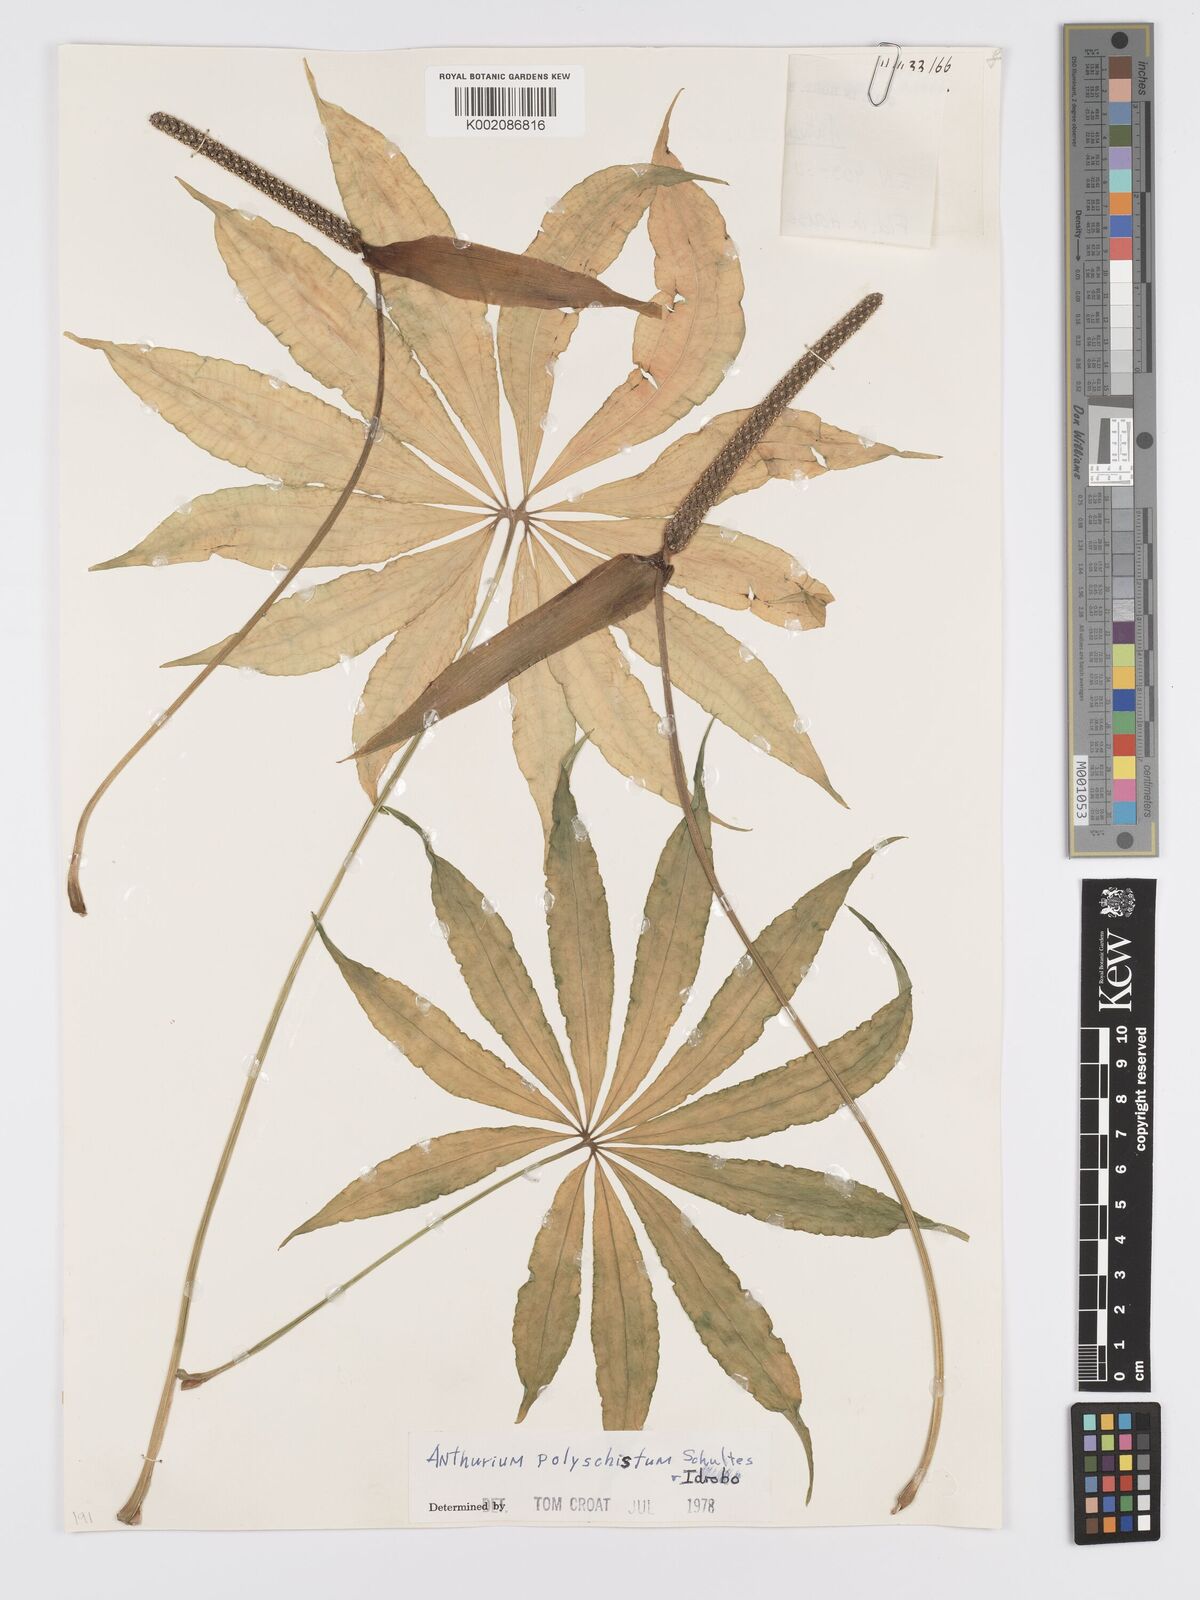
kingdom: Plantae
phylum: Tracheophyta
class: Liliopsida
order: Alismatales
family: Araceae
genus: Anthurium
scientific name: Anthurium polyschistum
